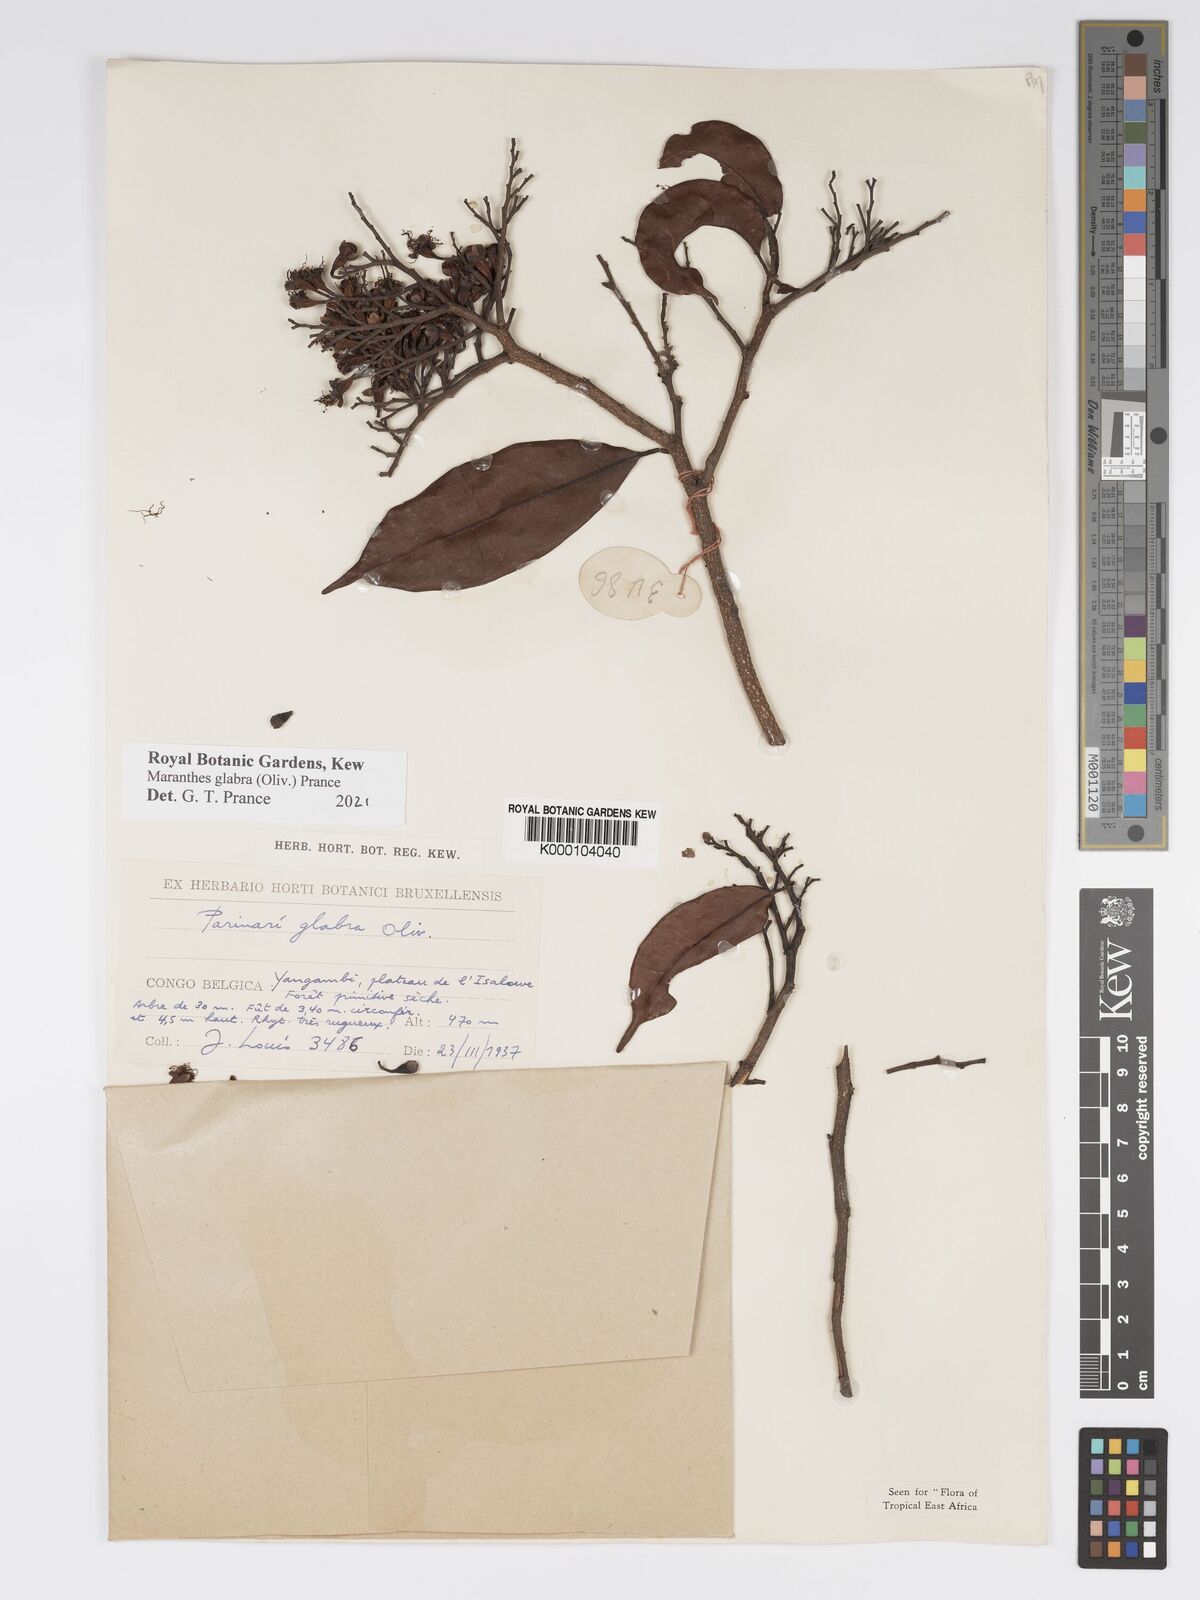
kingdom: Plantae
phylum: Tracheophyta
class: Magnoliopsida
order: Malpighiales
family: Chrysobalanaceae
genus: Maranthes
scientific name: Maranthes glabra
